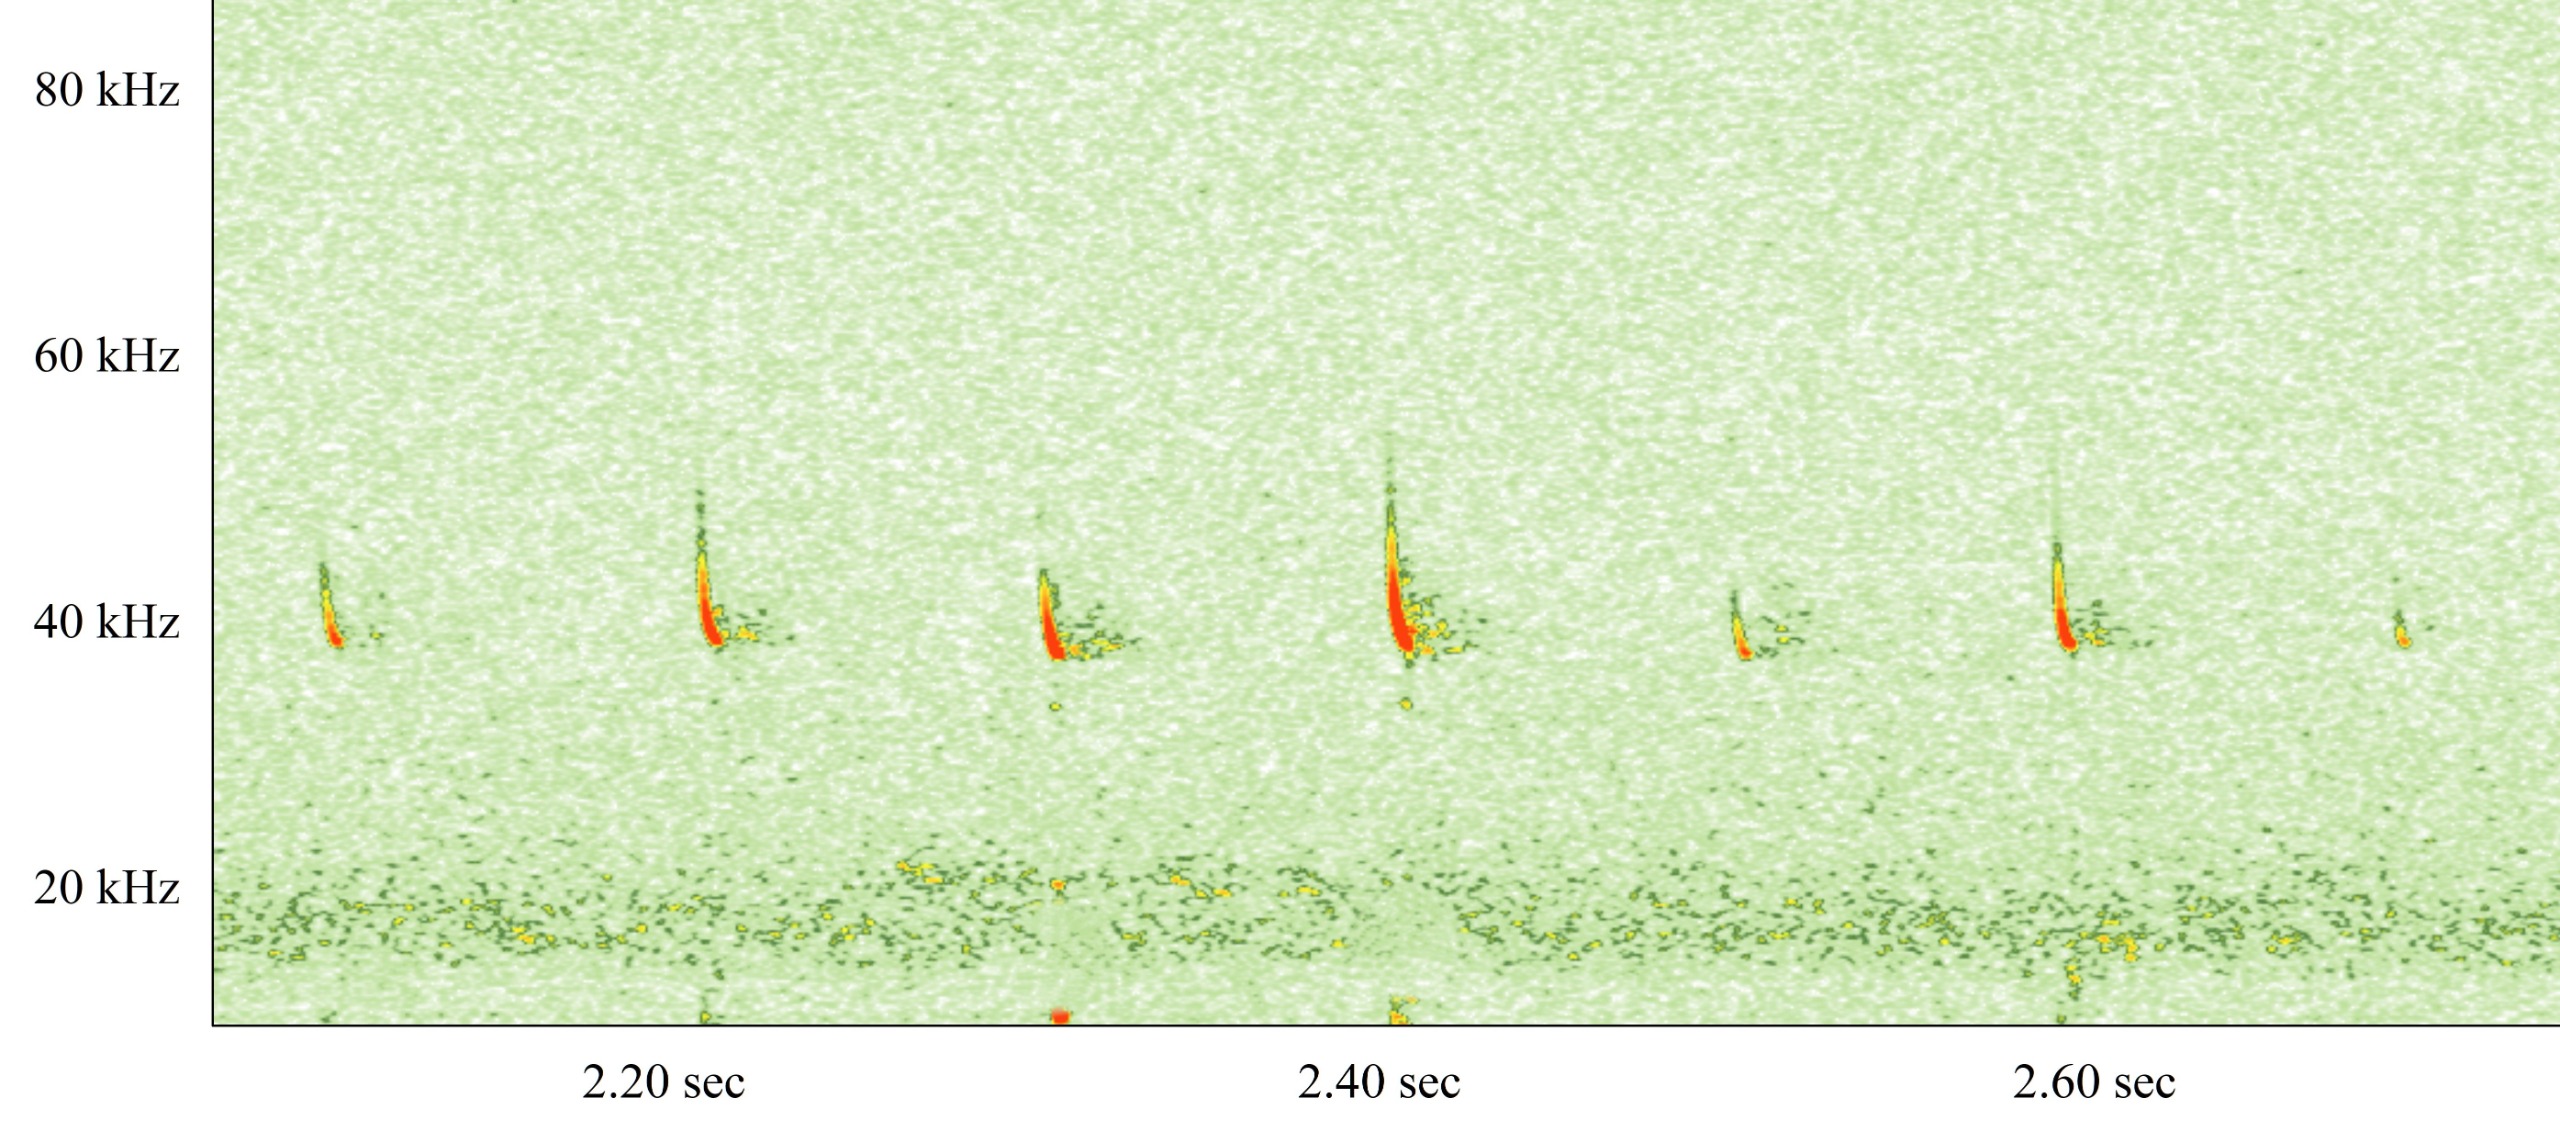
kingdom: Animalia
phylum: Chordata
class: Mammalia
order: Chiroptera
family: Vespertilionidae
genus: Pipistrellus
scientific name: Pipistrellus nathusii
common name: Troldflagermus
